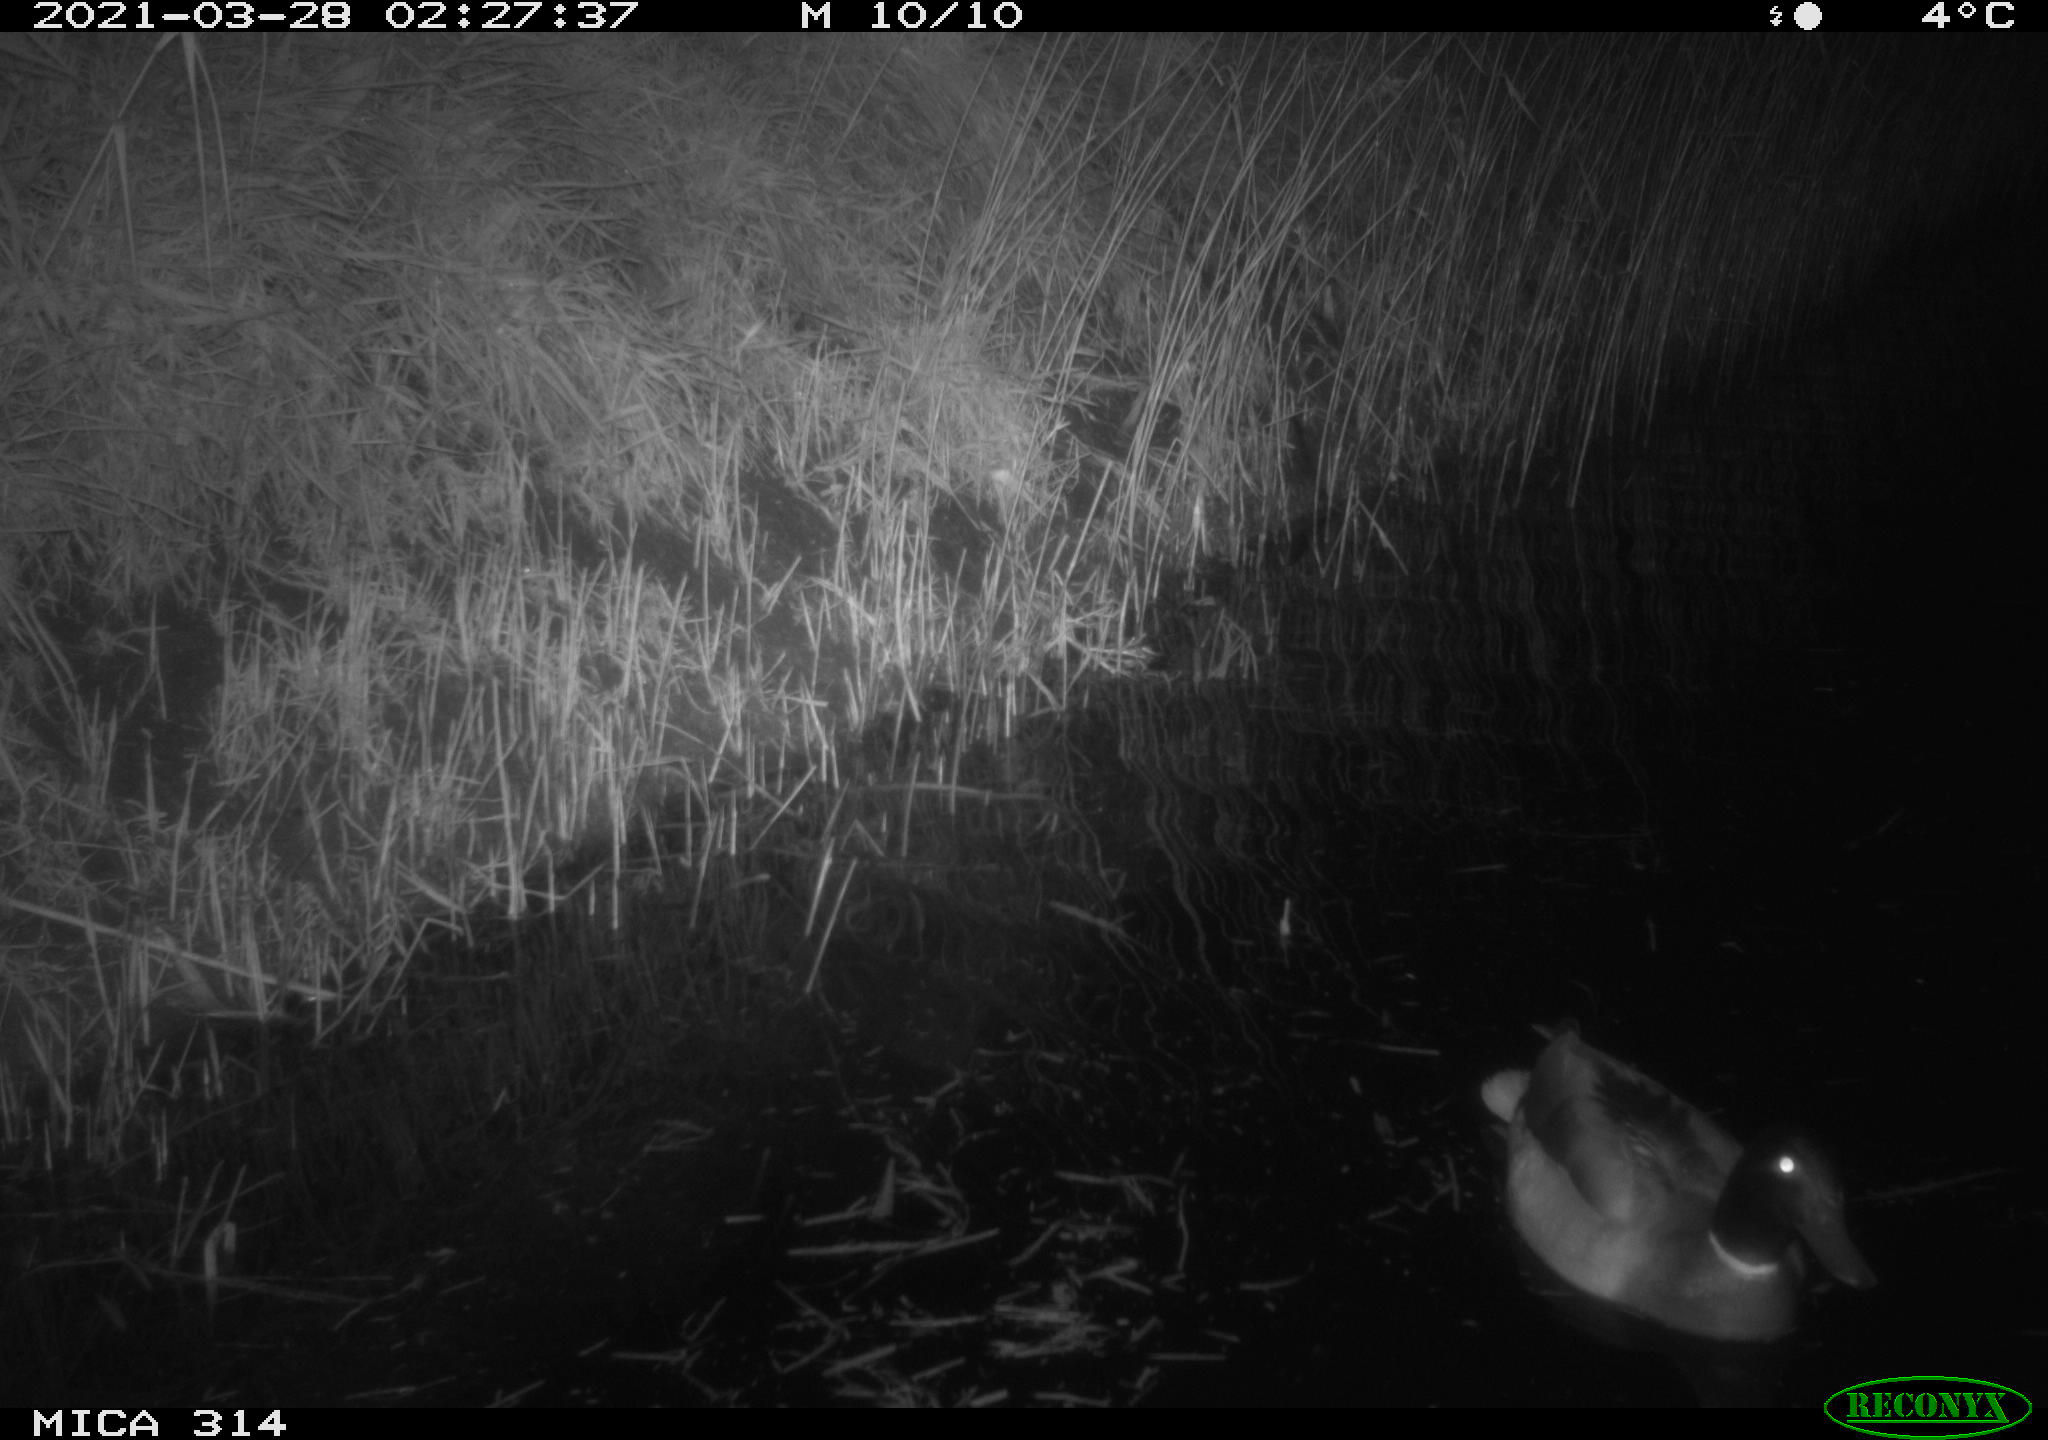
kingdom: Animalia
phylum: Chordata
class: Aves
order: Anseriformes
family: Anatidae
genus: Anas
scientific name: Anas platyrhynchos
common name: Mallard
